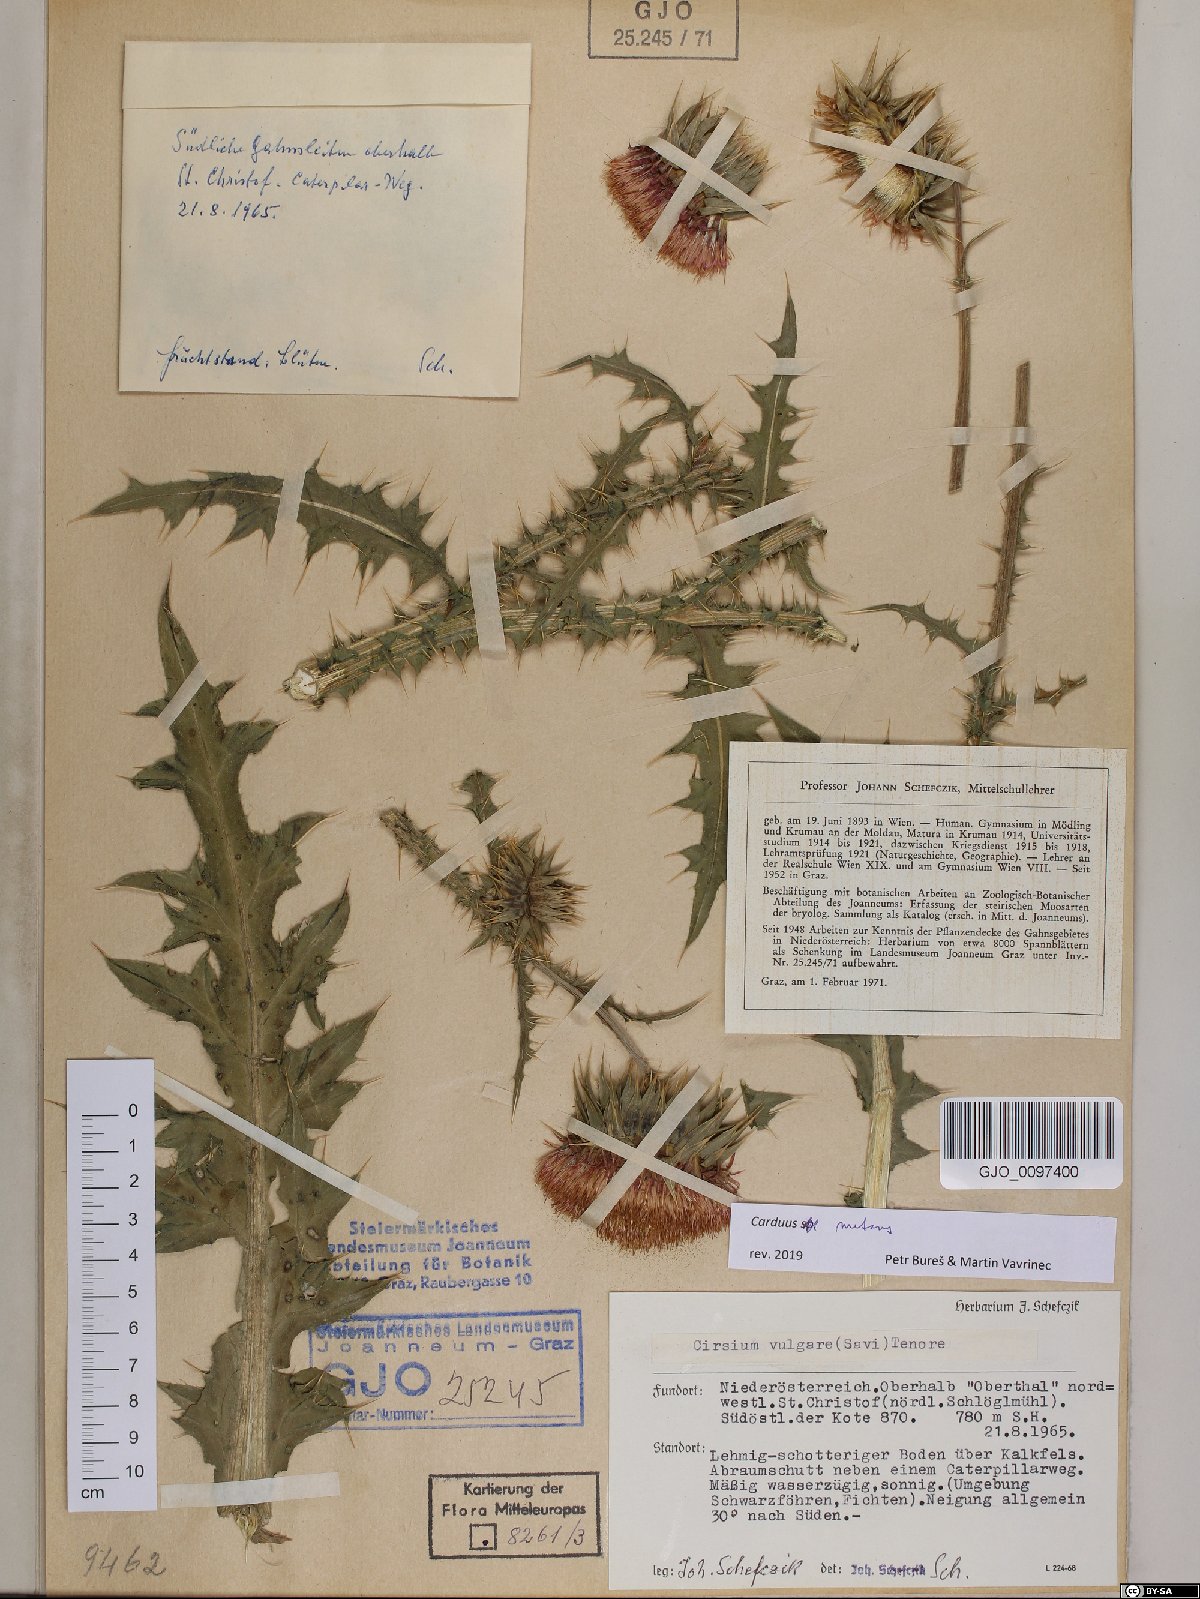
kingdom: Plantae
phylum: Tracheophyta
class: Magnoliopsida
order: Asterales
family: Asteraceae
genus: Carduus
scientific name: Carduus nutans
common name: Musk thistle
